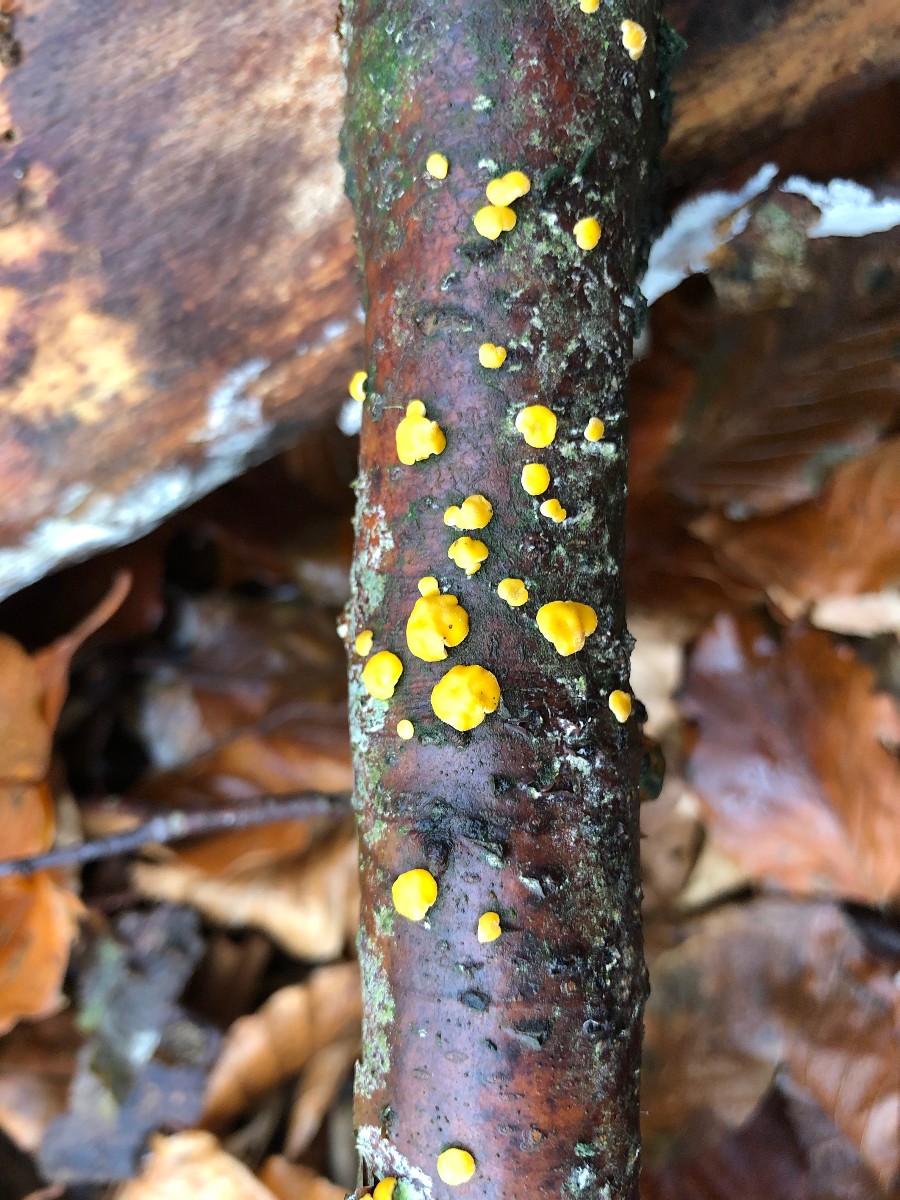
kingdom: Fungi
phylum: Ascomycota
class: Sordariomycetes
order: Hypocreales
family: Hypocreaceae
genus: Trichoderma
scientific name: Trichoderma
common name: kødkerne
